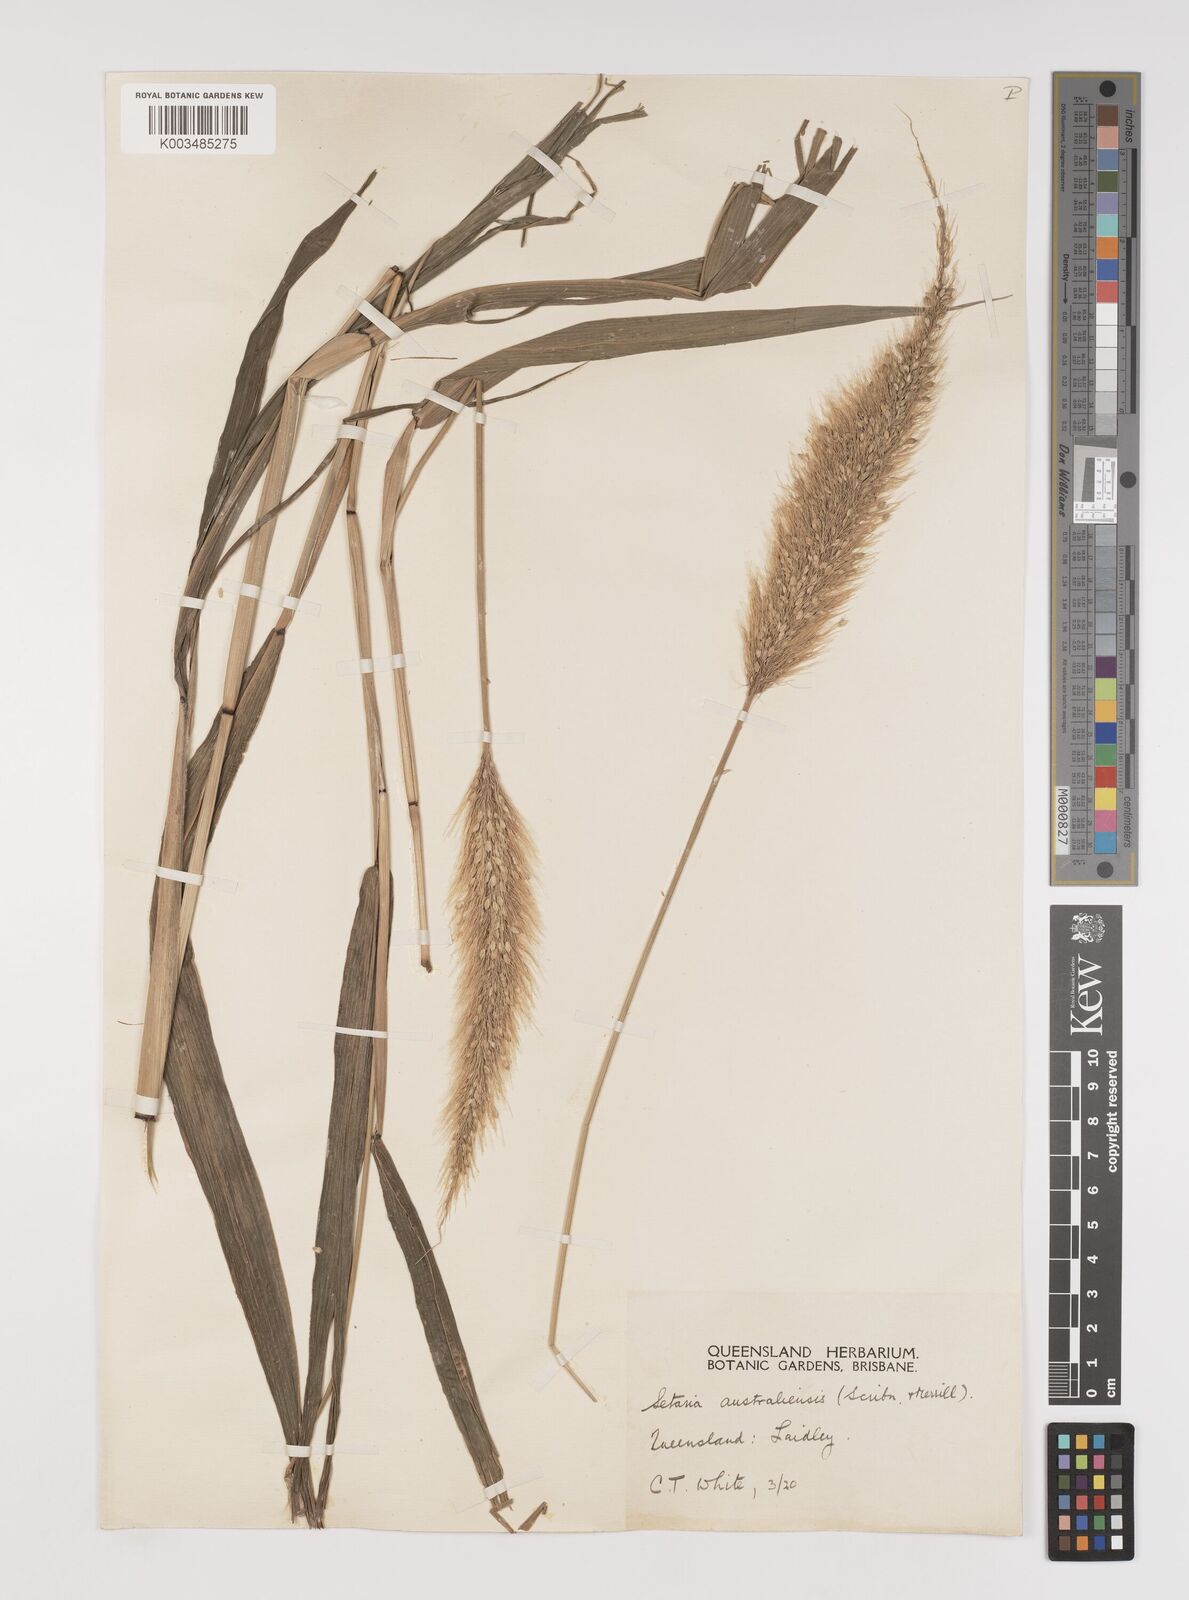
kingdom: Plantae
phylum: Tracheophyta
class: Liliopsida
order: Poales
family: Poaceae
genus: Setaria
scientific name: Setaria australiensis
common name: Scrub pigeon grass
